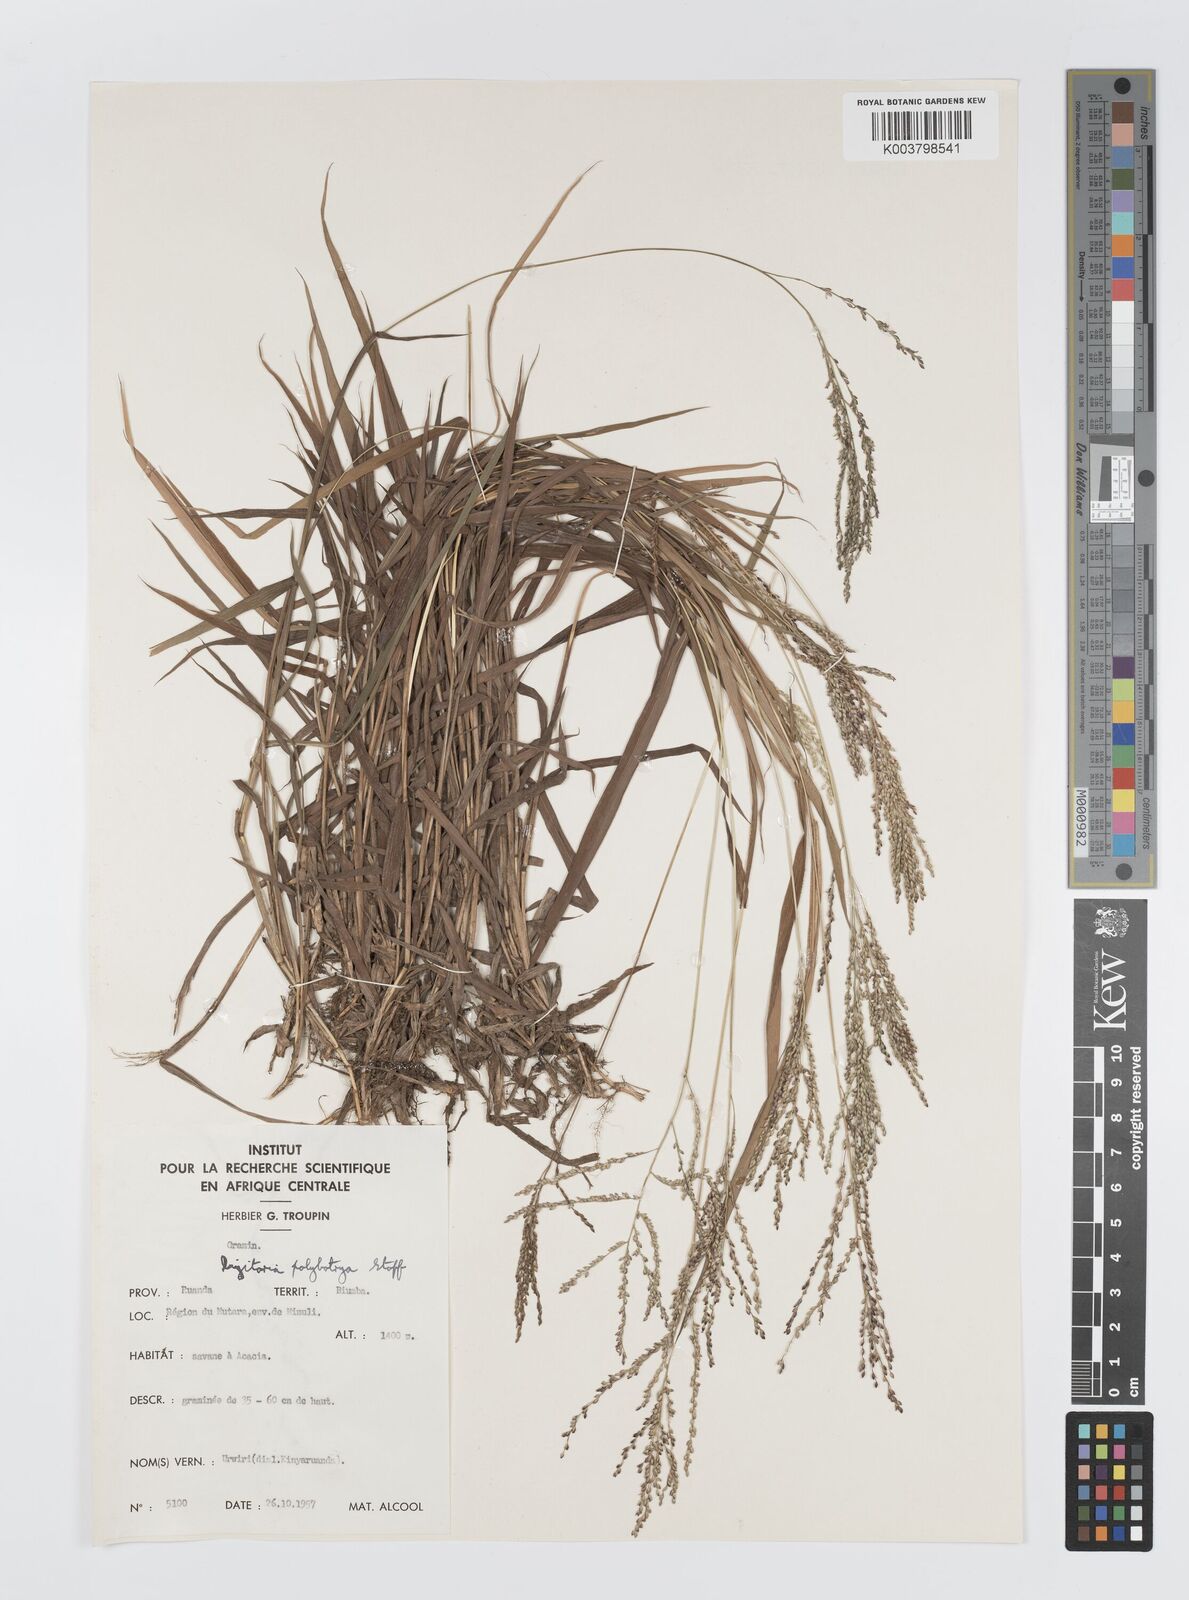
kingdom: Plantae
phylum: Tracheophyta
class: Liliopsida
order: Poales
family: Poaceae
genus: Digitaria
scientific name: Digitaria abyssinica
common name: African couchgrass
